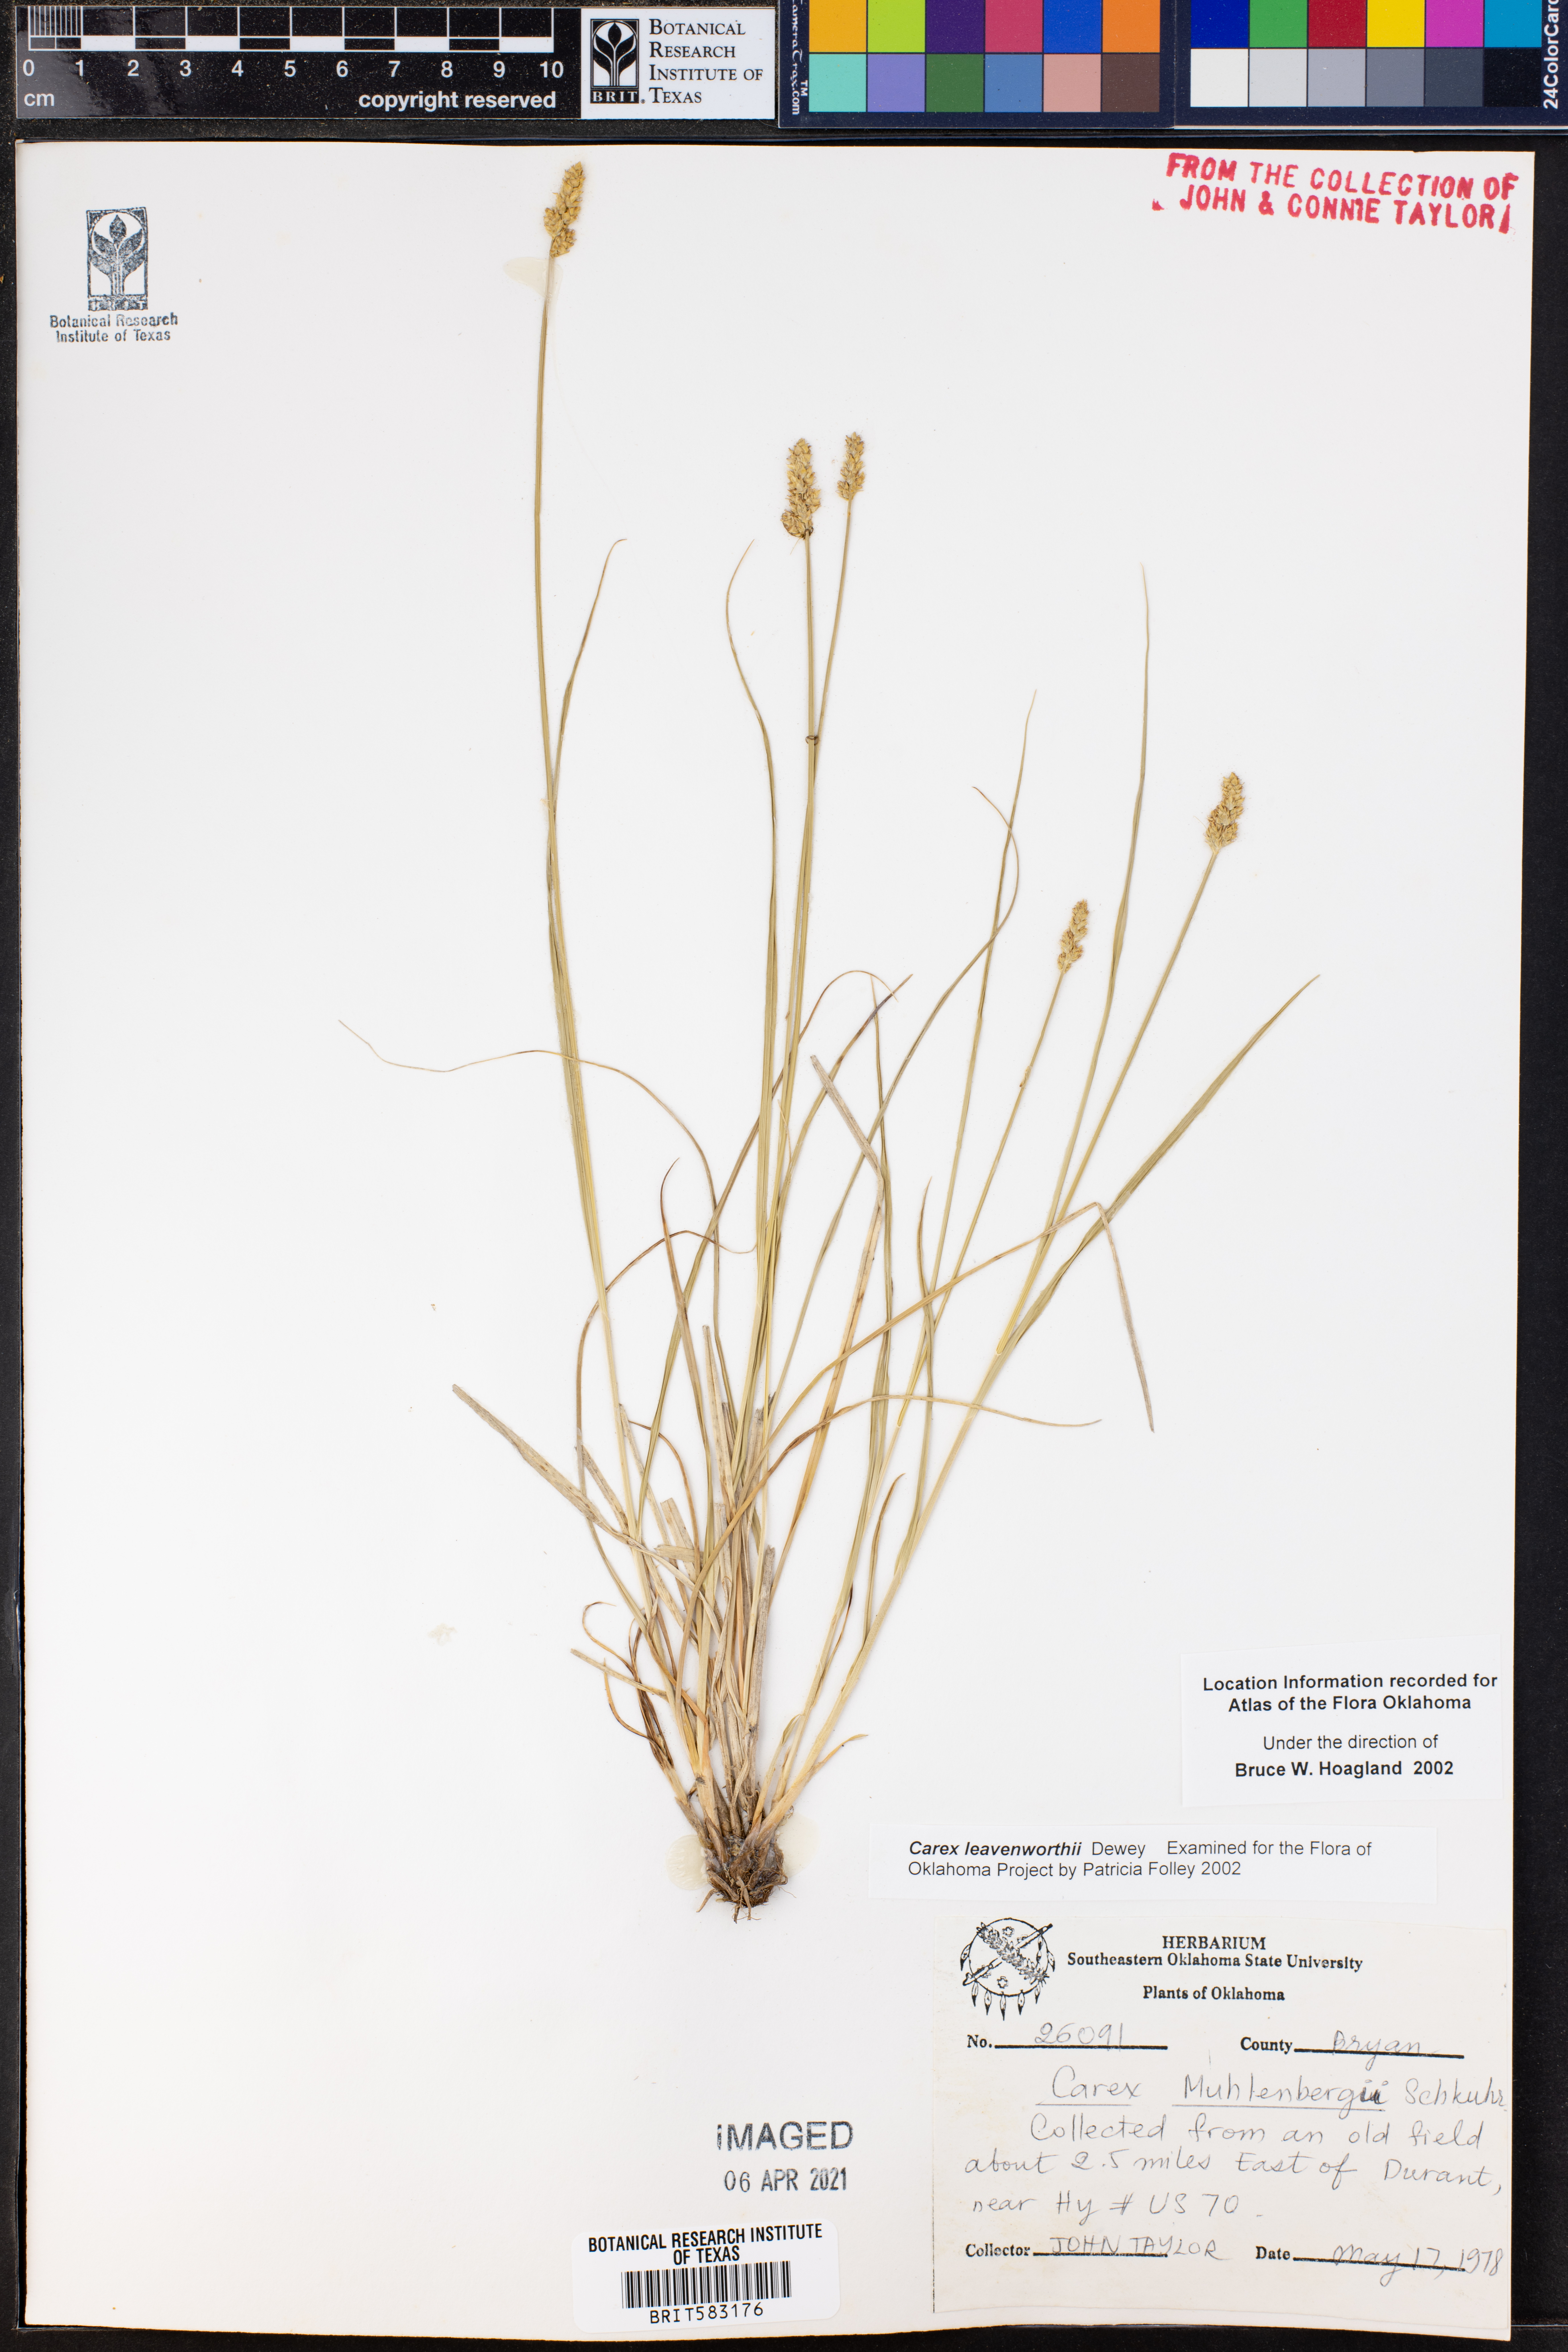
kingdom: Plantae
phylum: Tracheophyta
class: Liliopsida
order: Poales
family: Cyperaceae
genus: Carex
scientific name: Carex leavenworthii
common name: Leavenworth's bracted sedge
